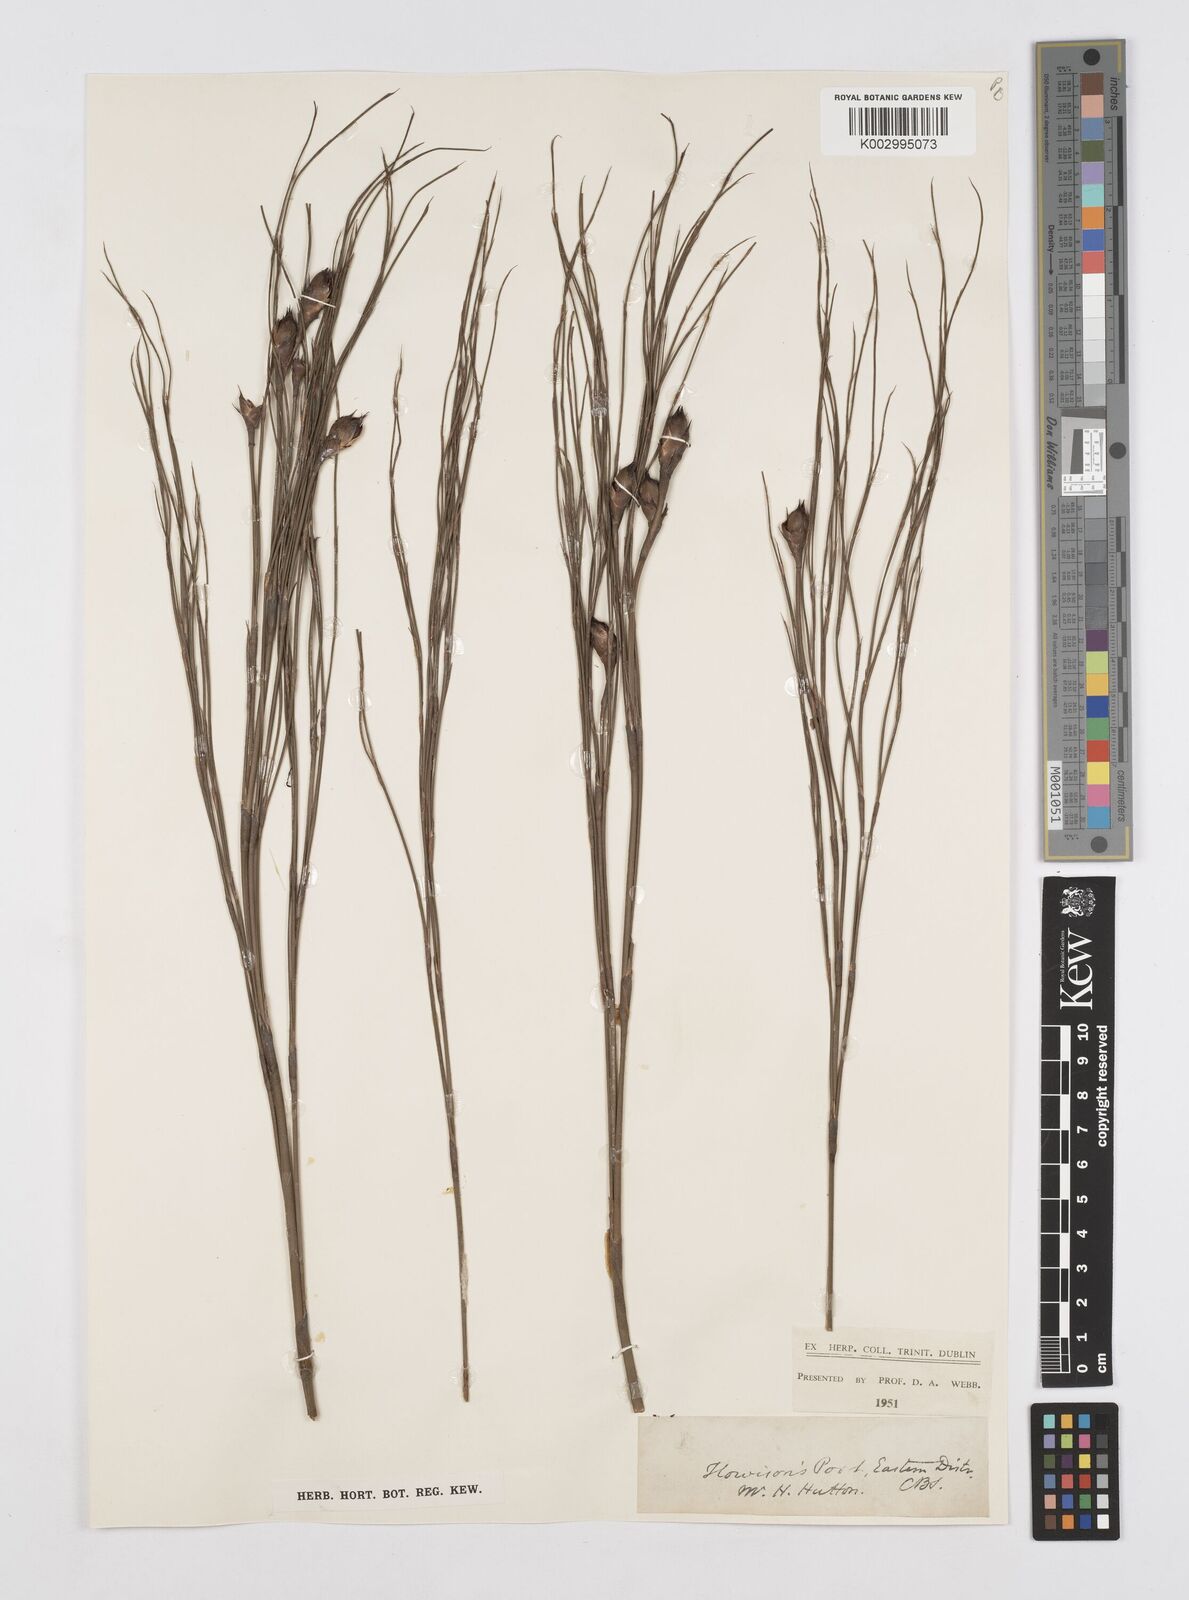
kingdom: Plantae
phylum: Tracheophyta
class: Liliopsida
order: Poales
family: Restionaceae
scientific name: Restionaceae
